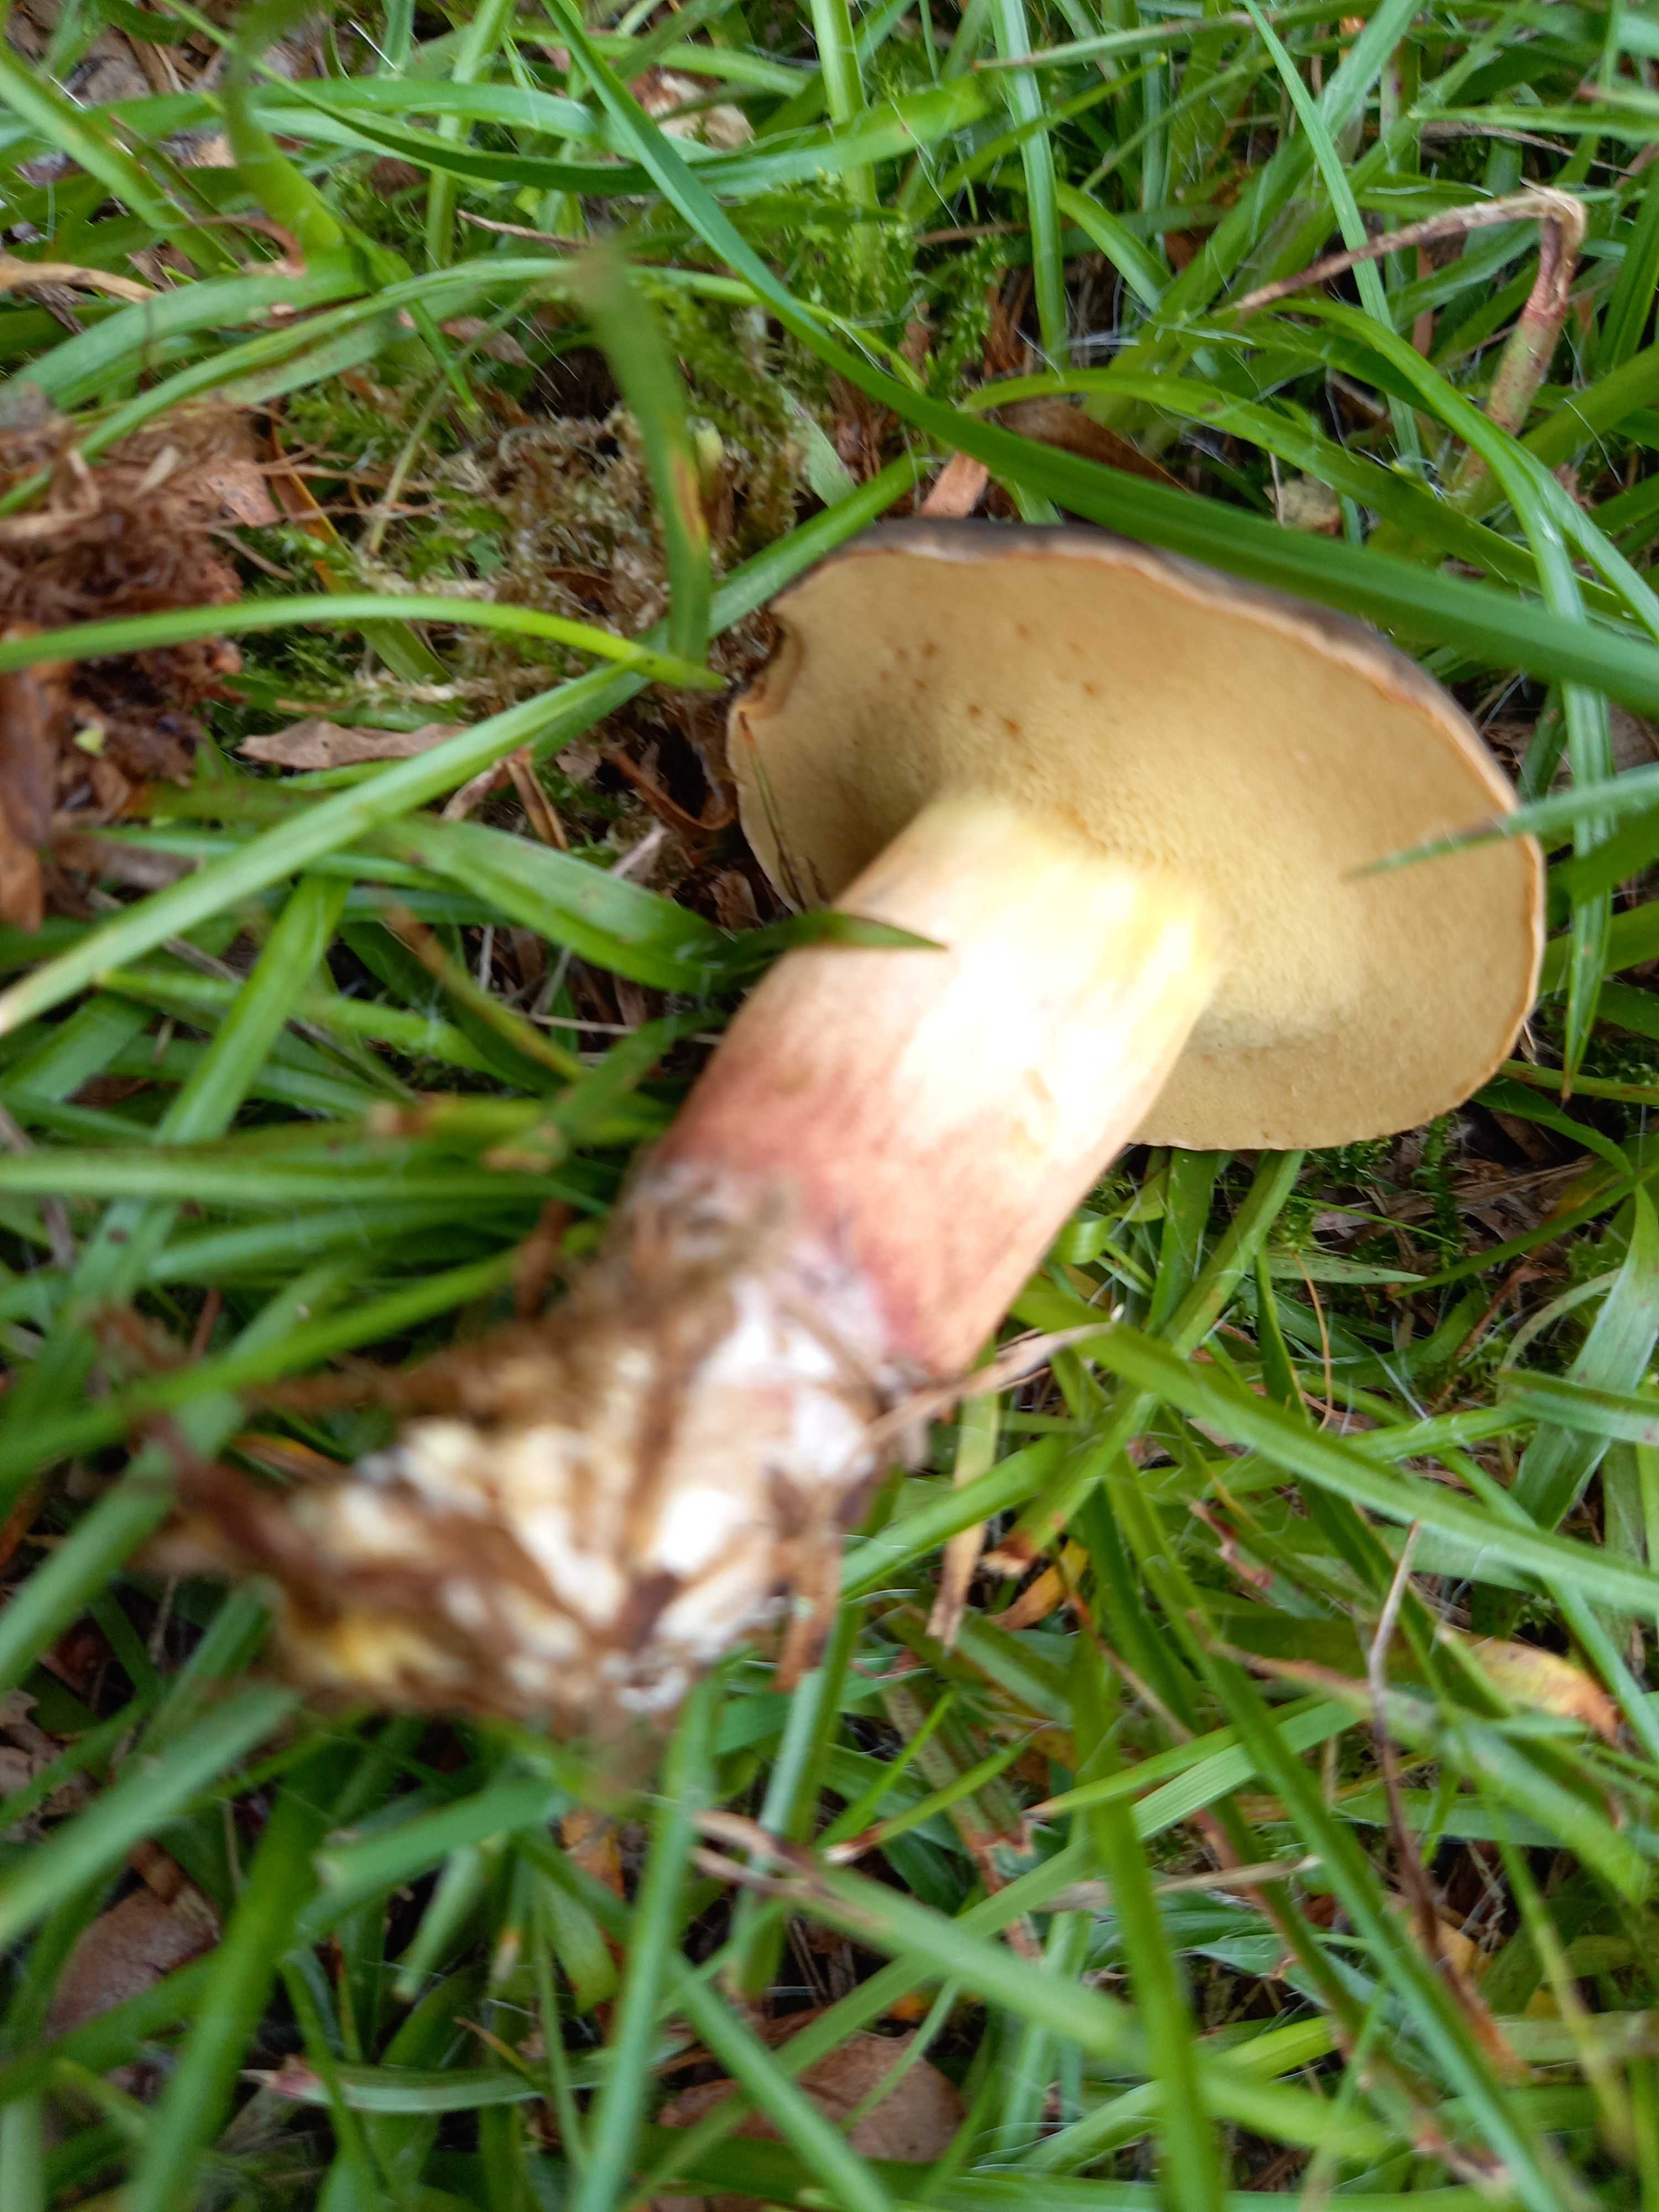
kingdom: Fungi
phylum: Basidiomycota
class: Agaricomycetes
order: Boletales
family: Boletaceae
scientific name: Boletaceae
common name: rørhatfamilien
